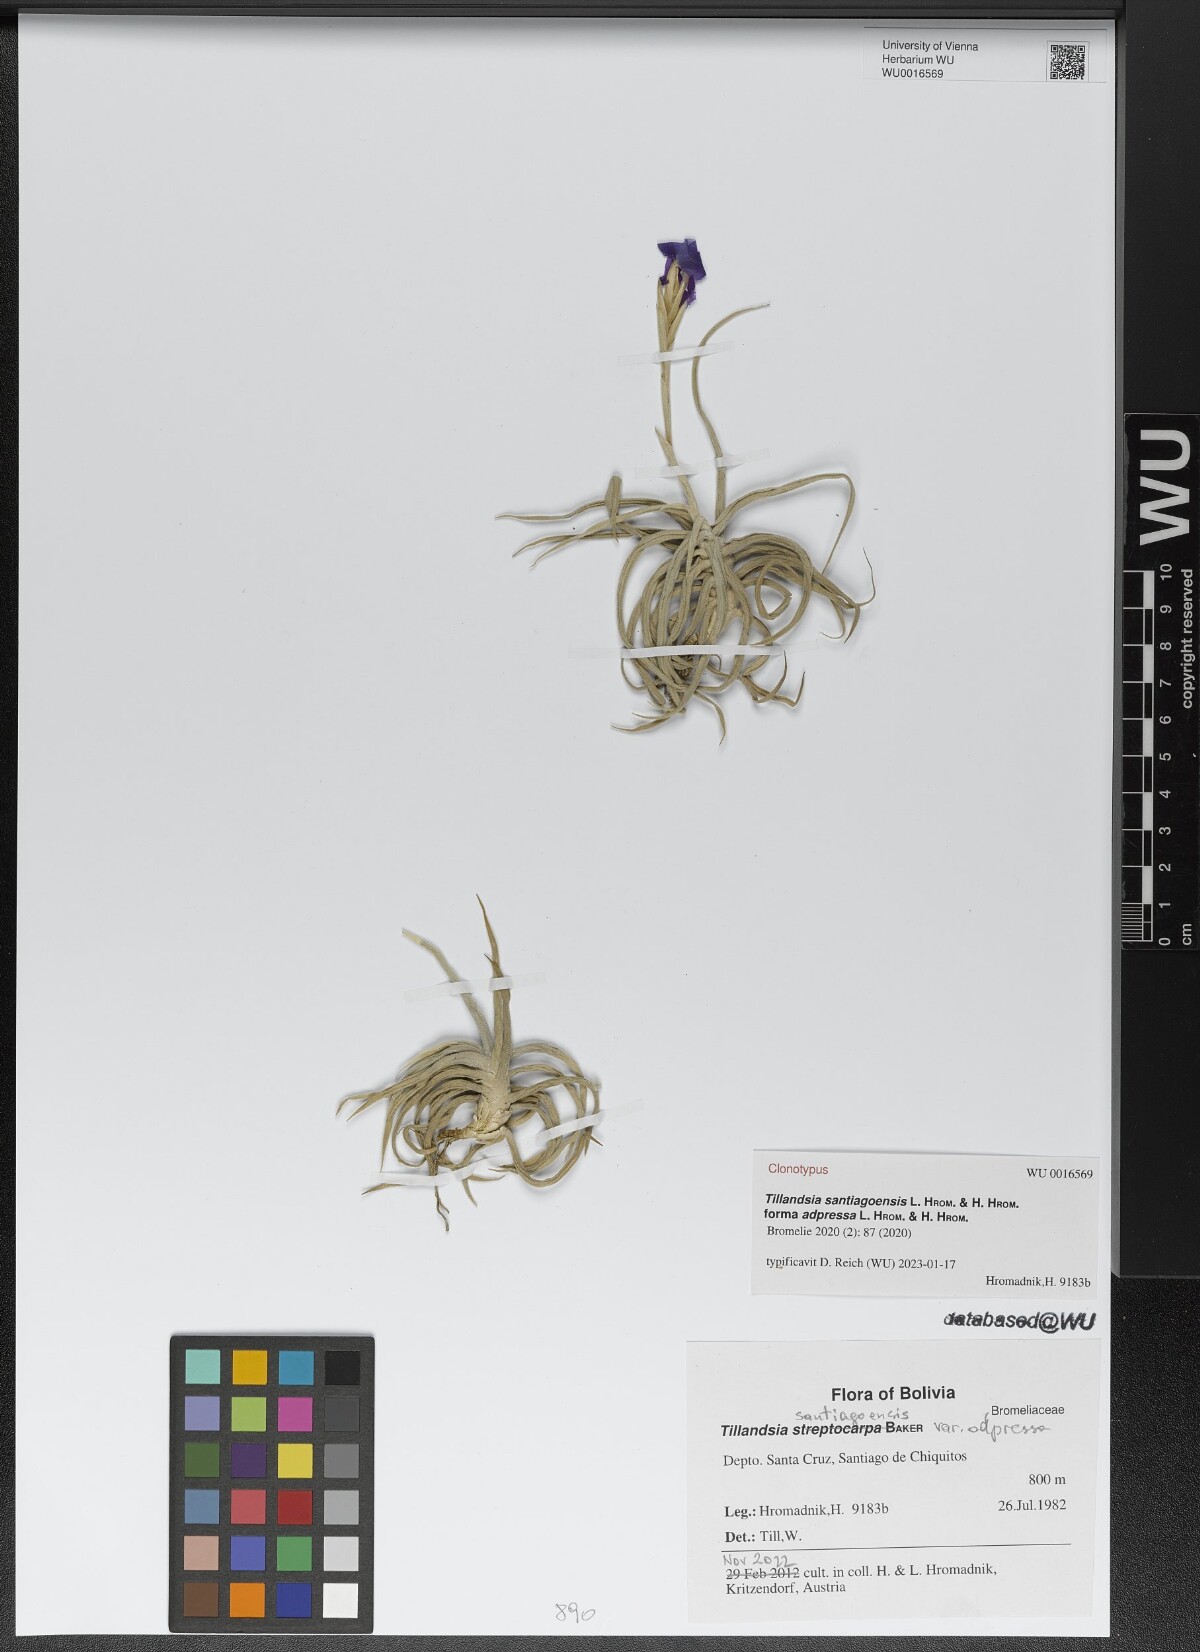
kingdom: Plantae
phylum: Tracheophyta
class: Liliopsida
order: Poales
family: Bromeliaceae
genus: Tillandsia
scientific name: Tillandsia santiagoensis
